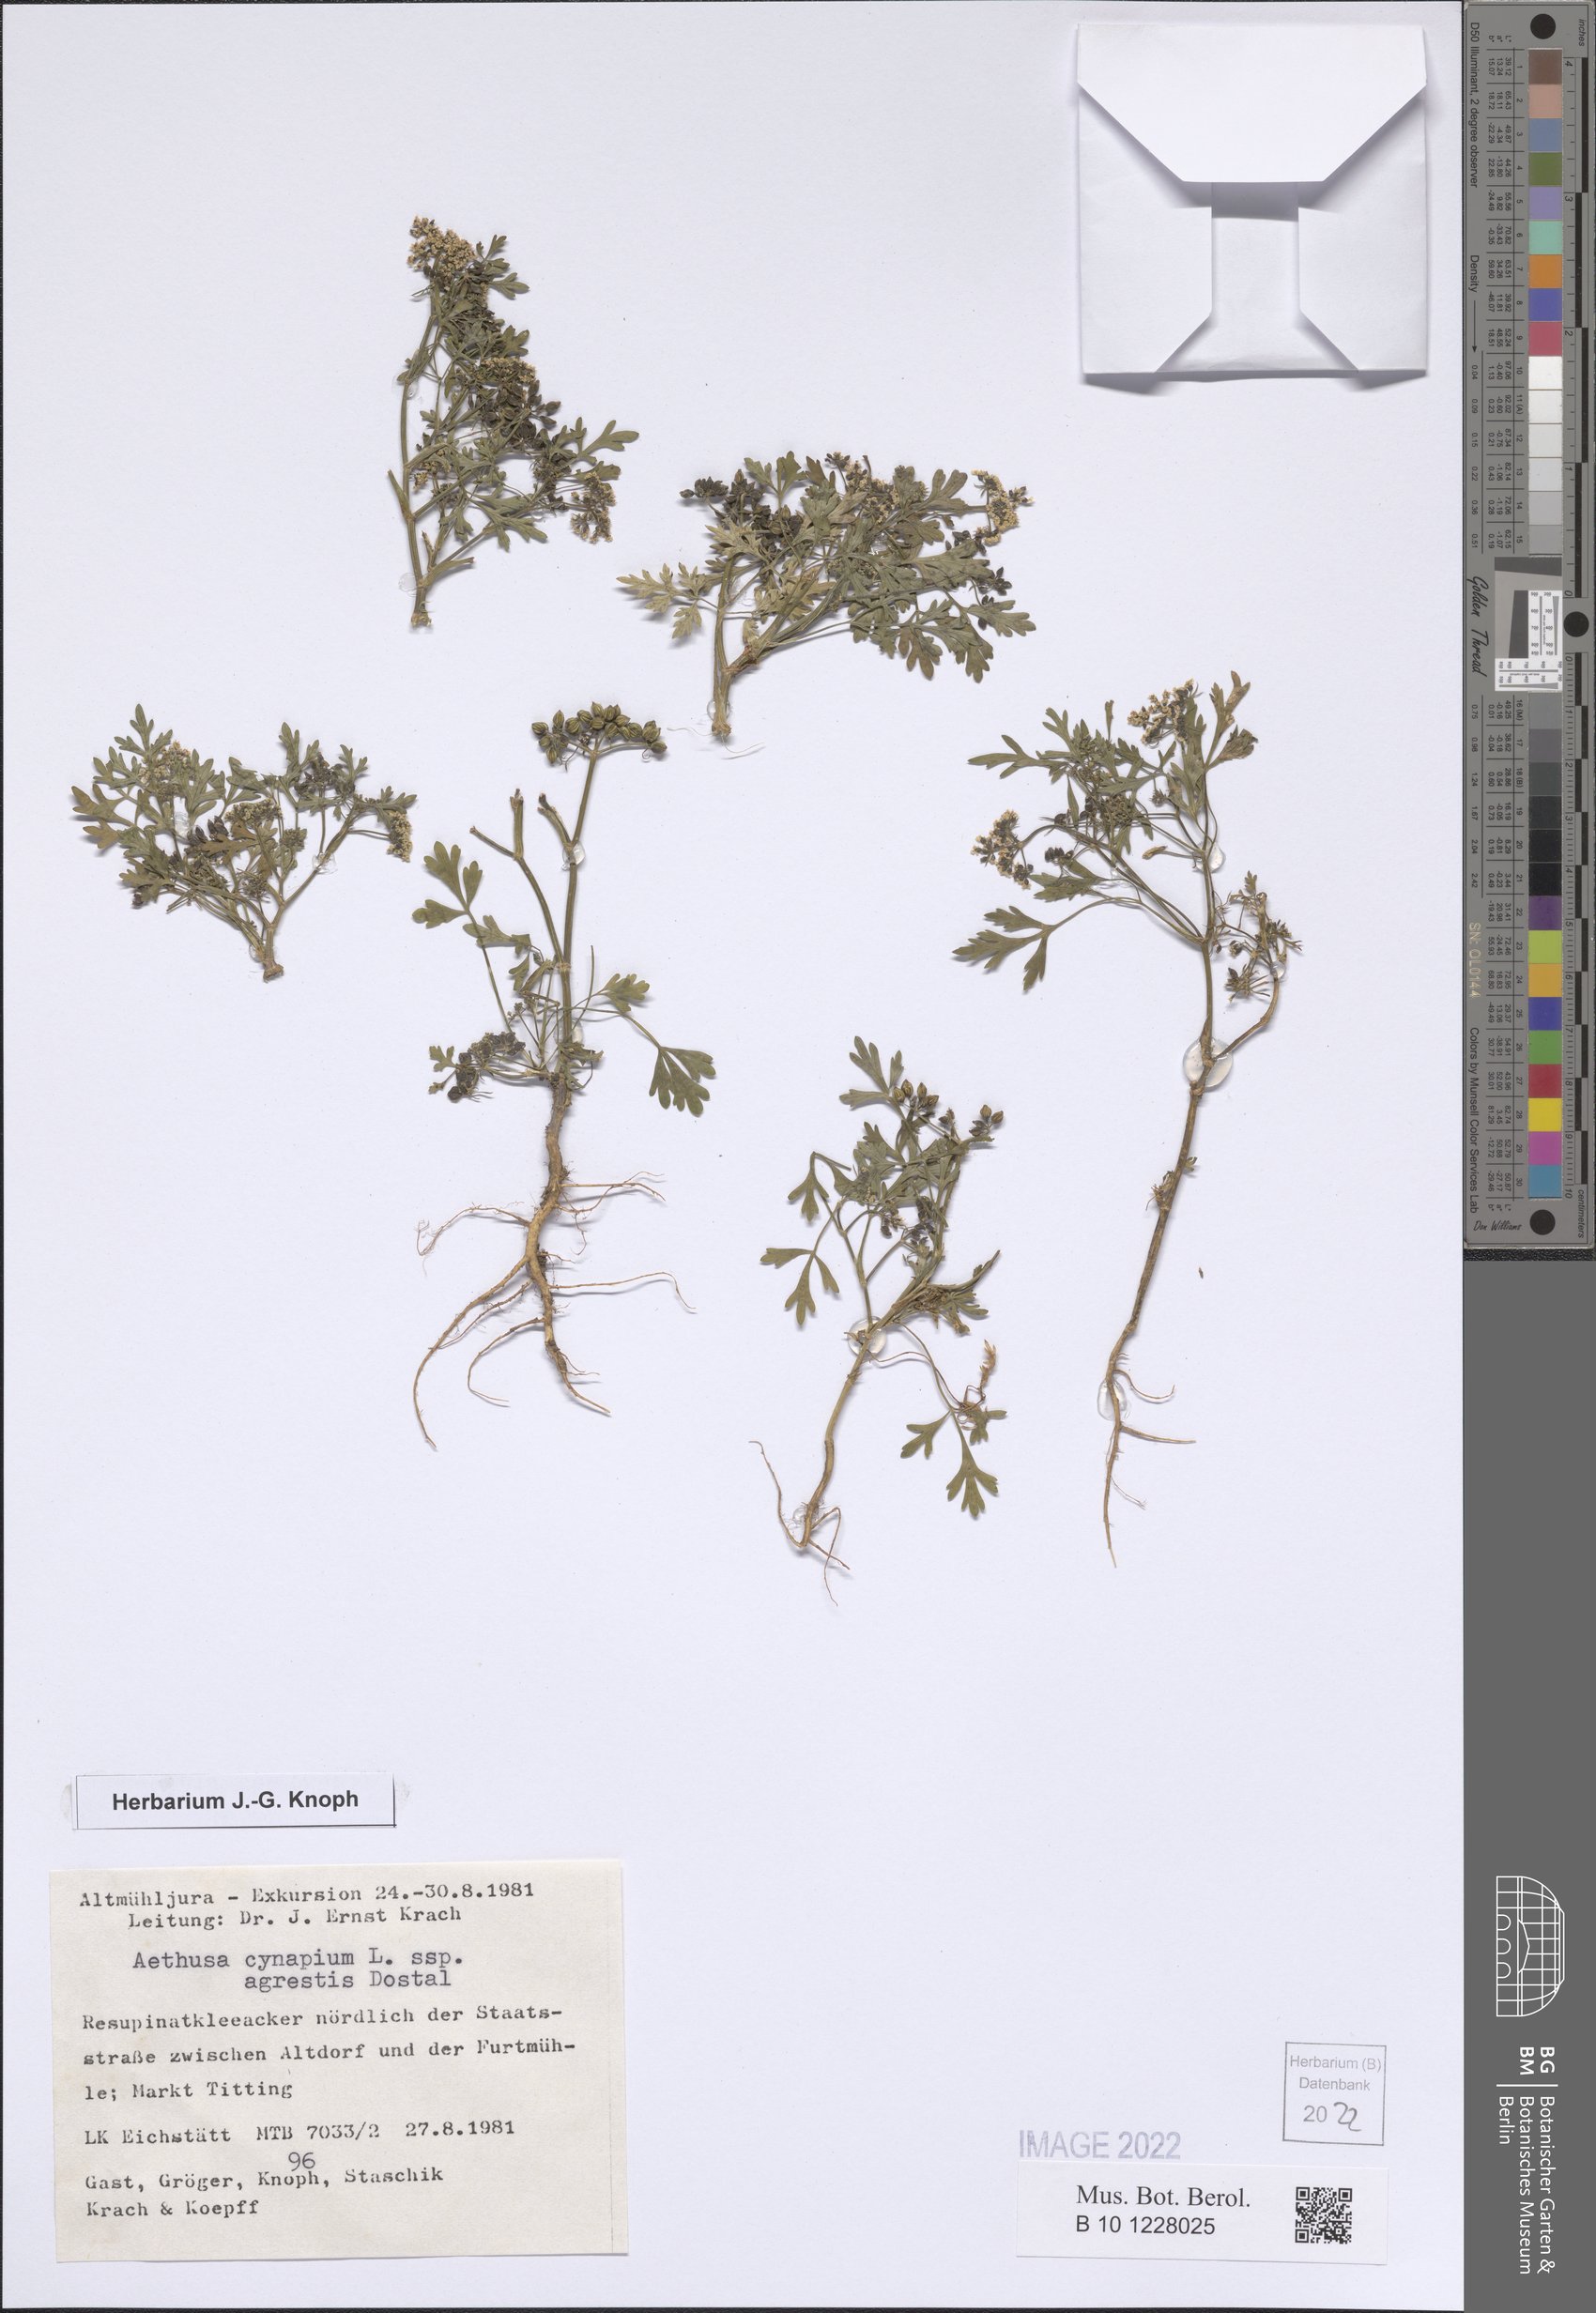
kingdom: Plantae
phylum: Tracheophyta
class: Magnoliopsida
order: Apiales
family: Apiaceae
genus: Aethusa
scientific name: Aethusa cynapium
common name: Fool's parsley
